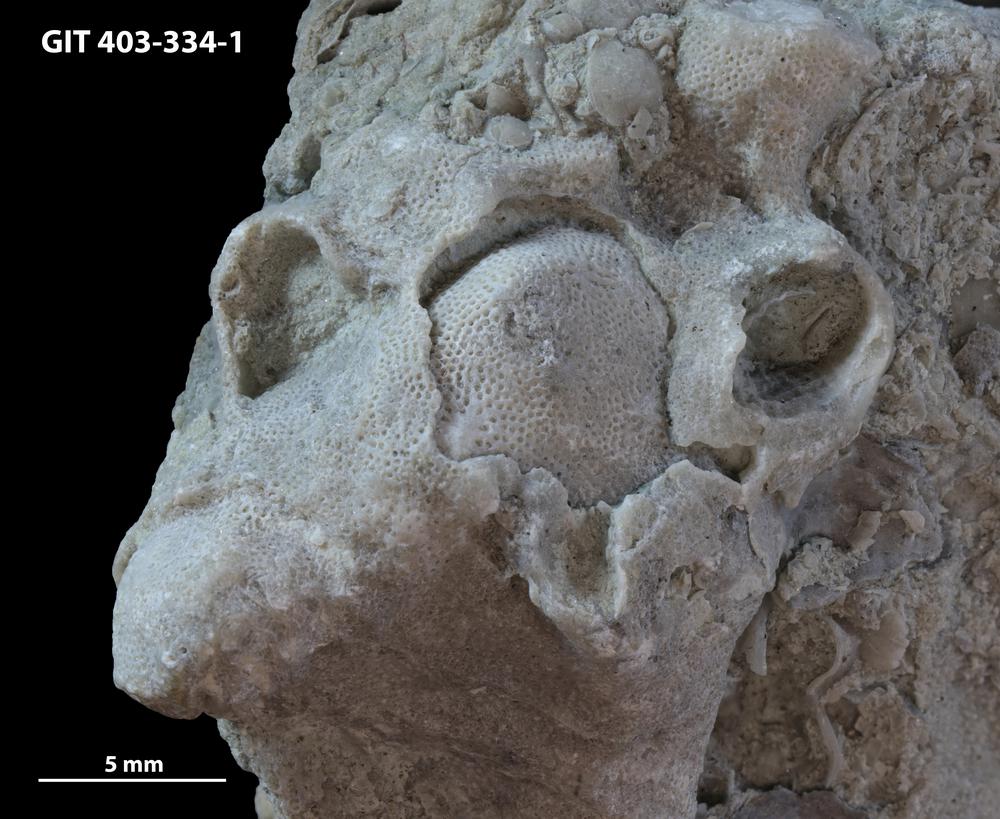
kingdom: Animalia
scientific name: Animalia
